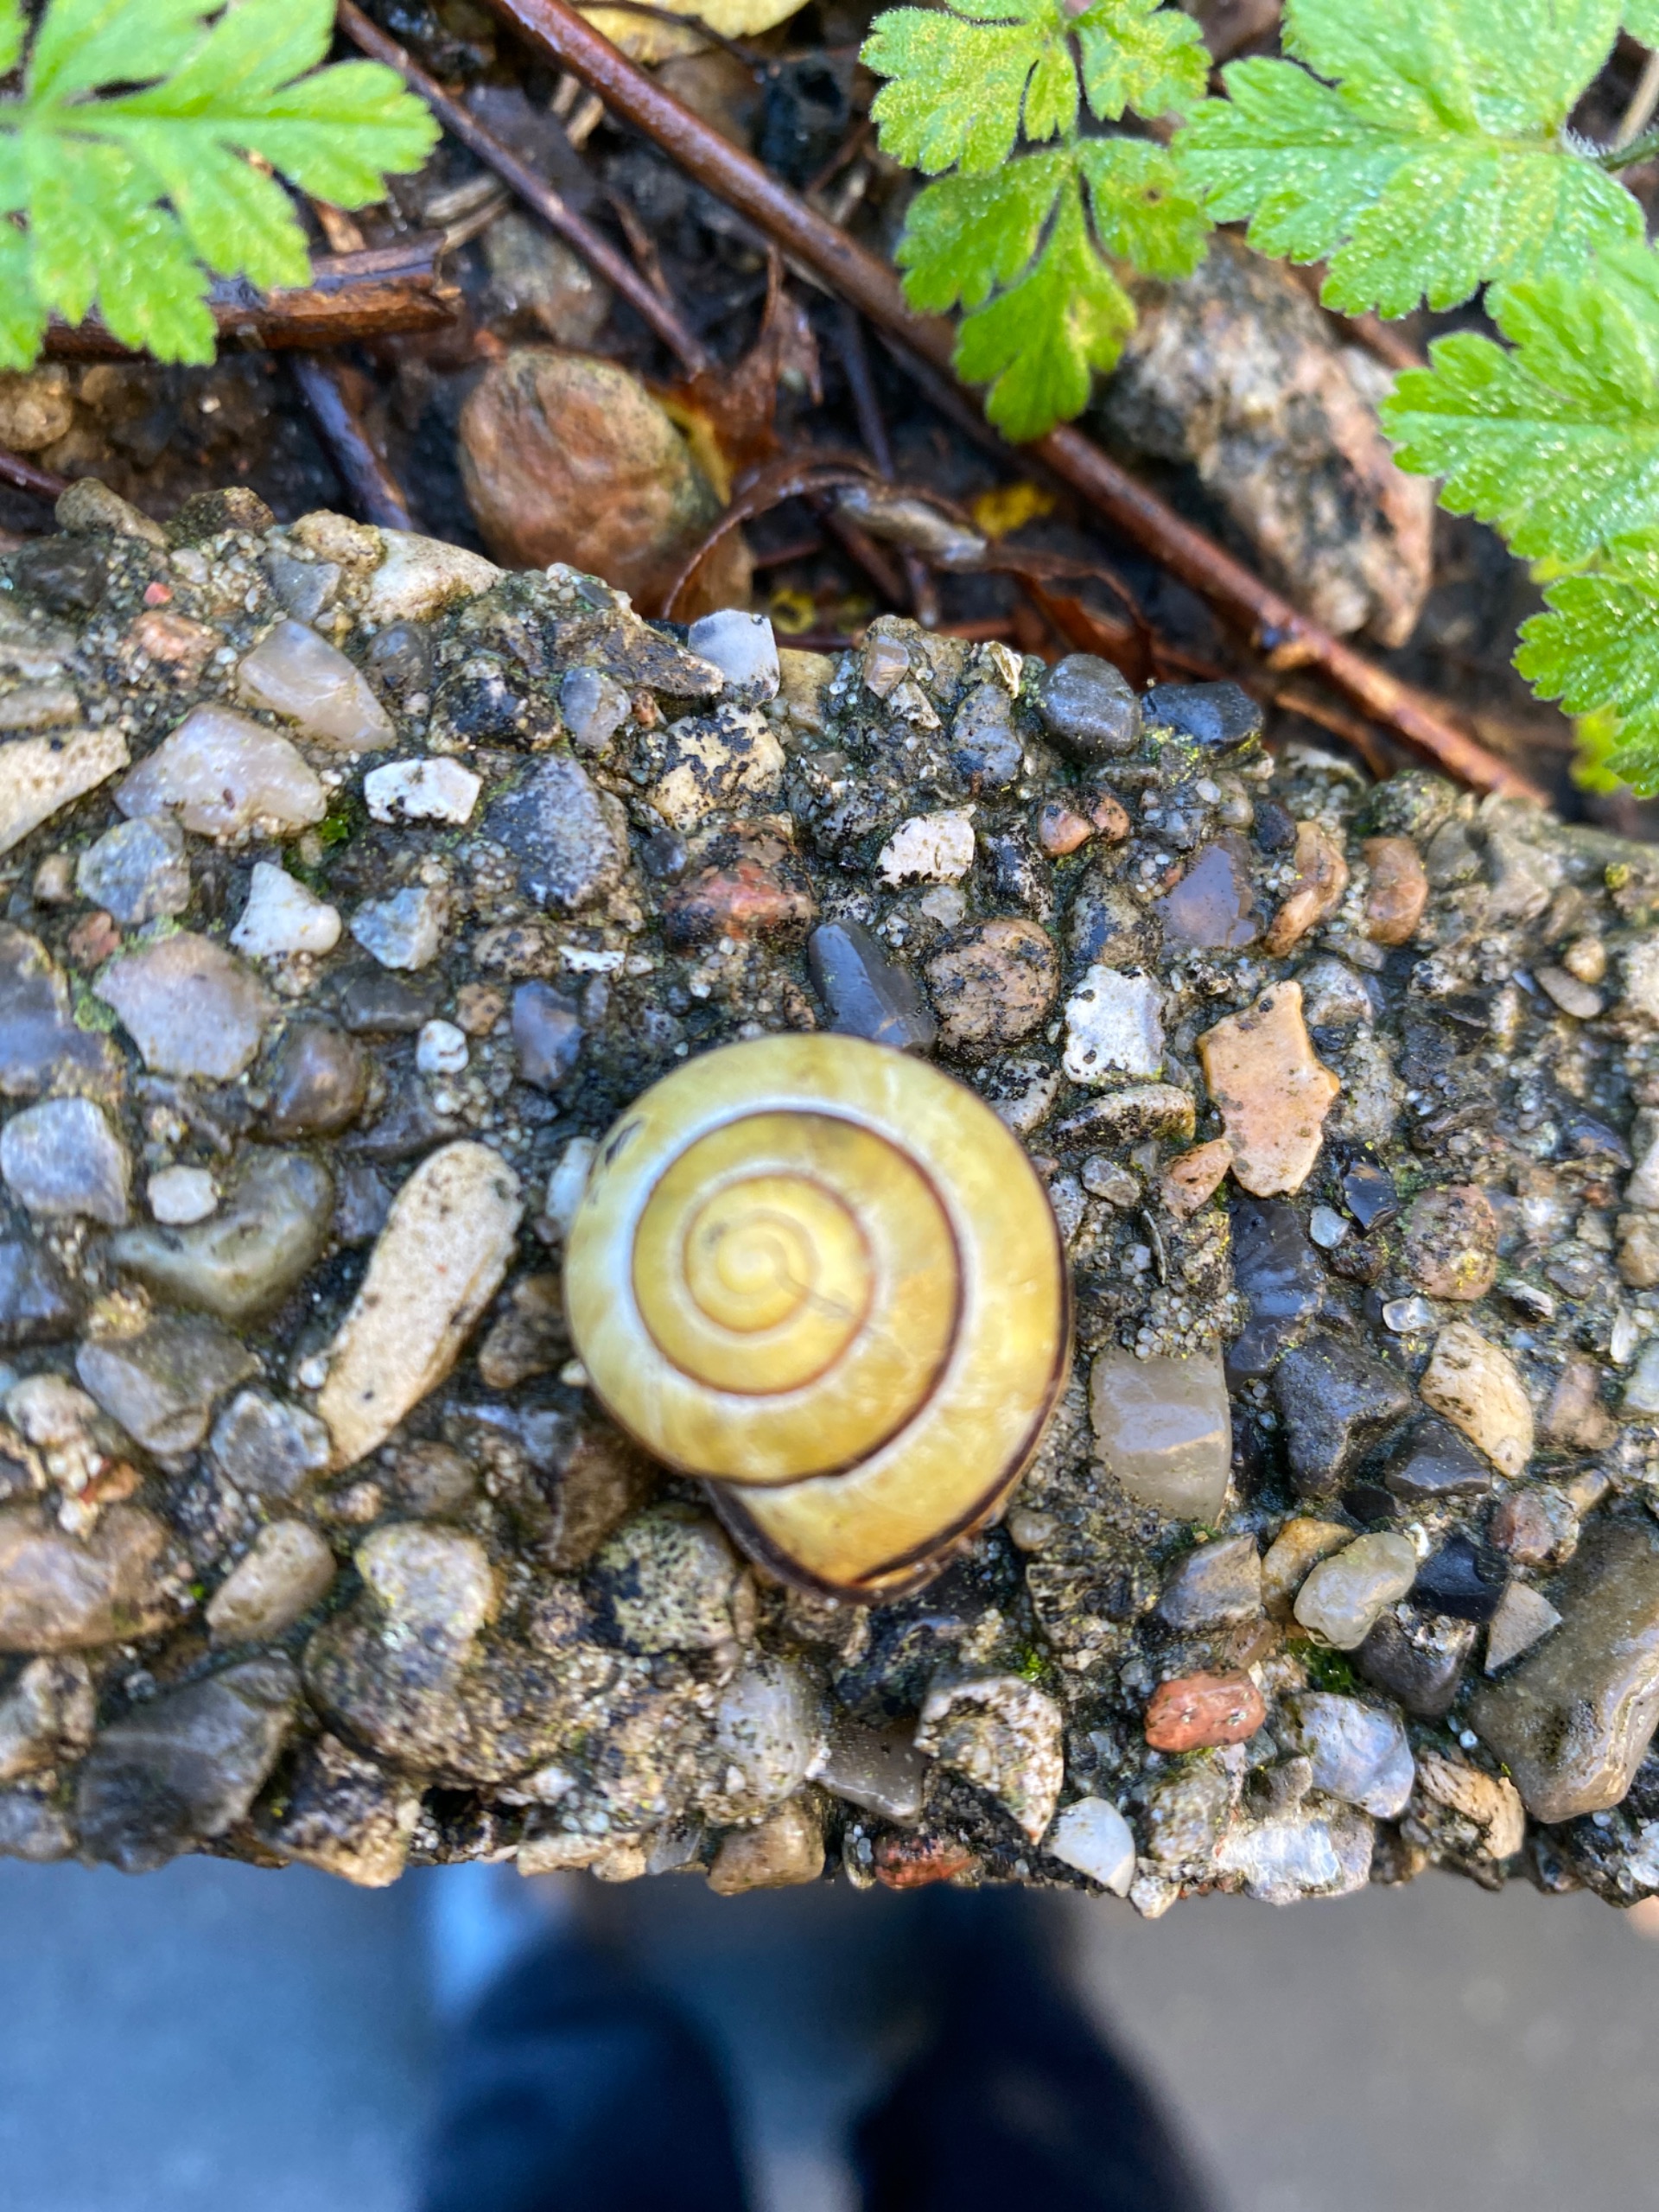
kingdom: Animalia
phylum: Mollusca
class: Gastropoda
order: Stylommatophora
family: Helicidae
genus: Cepaea
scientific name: Cepaea nemoralis
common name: Lundsnegl
